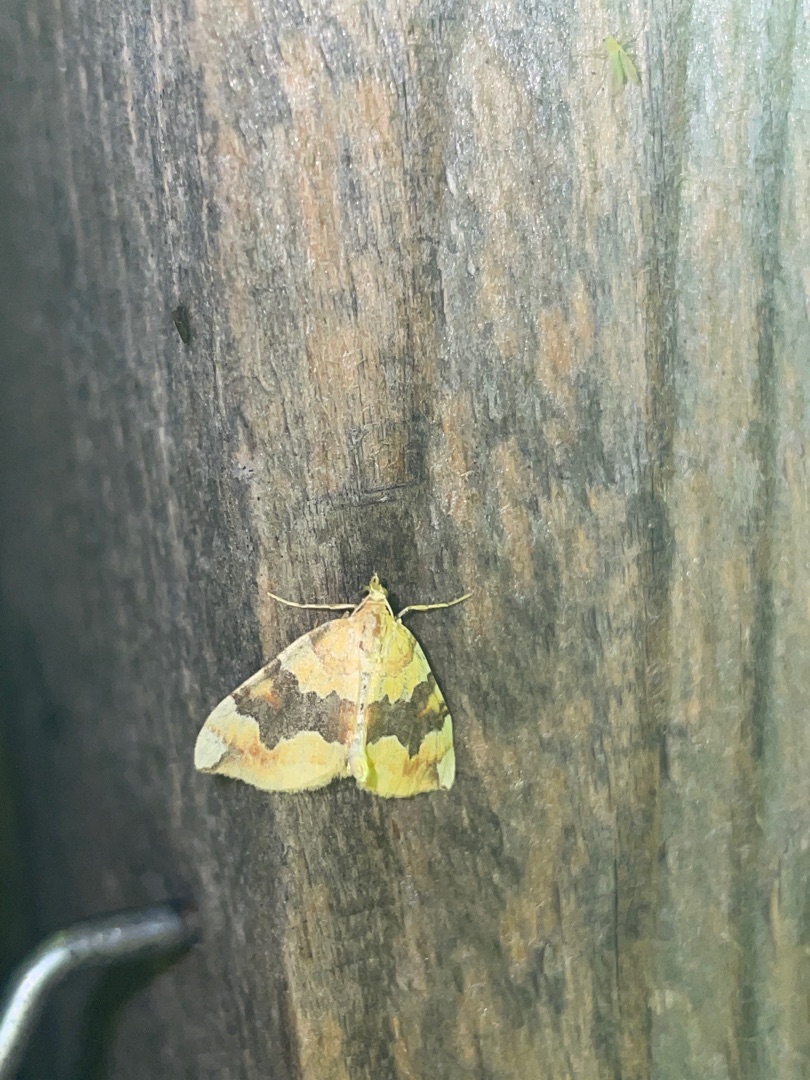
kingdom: Animalia
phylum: Arthropoda
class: Insecta
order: Lepidoptera
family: Geometridae
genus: Cidaria
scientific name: Cidaria fulvata
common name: Gul bladmåler
